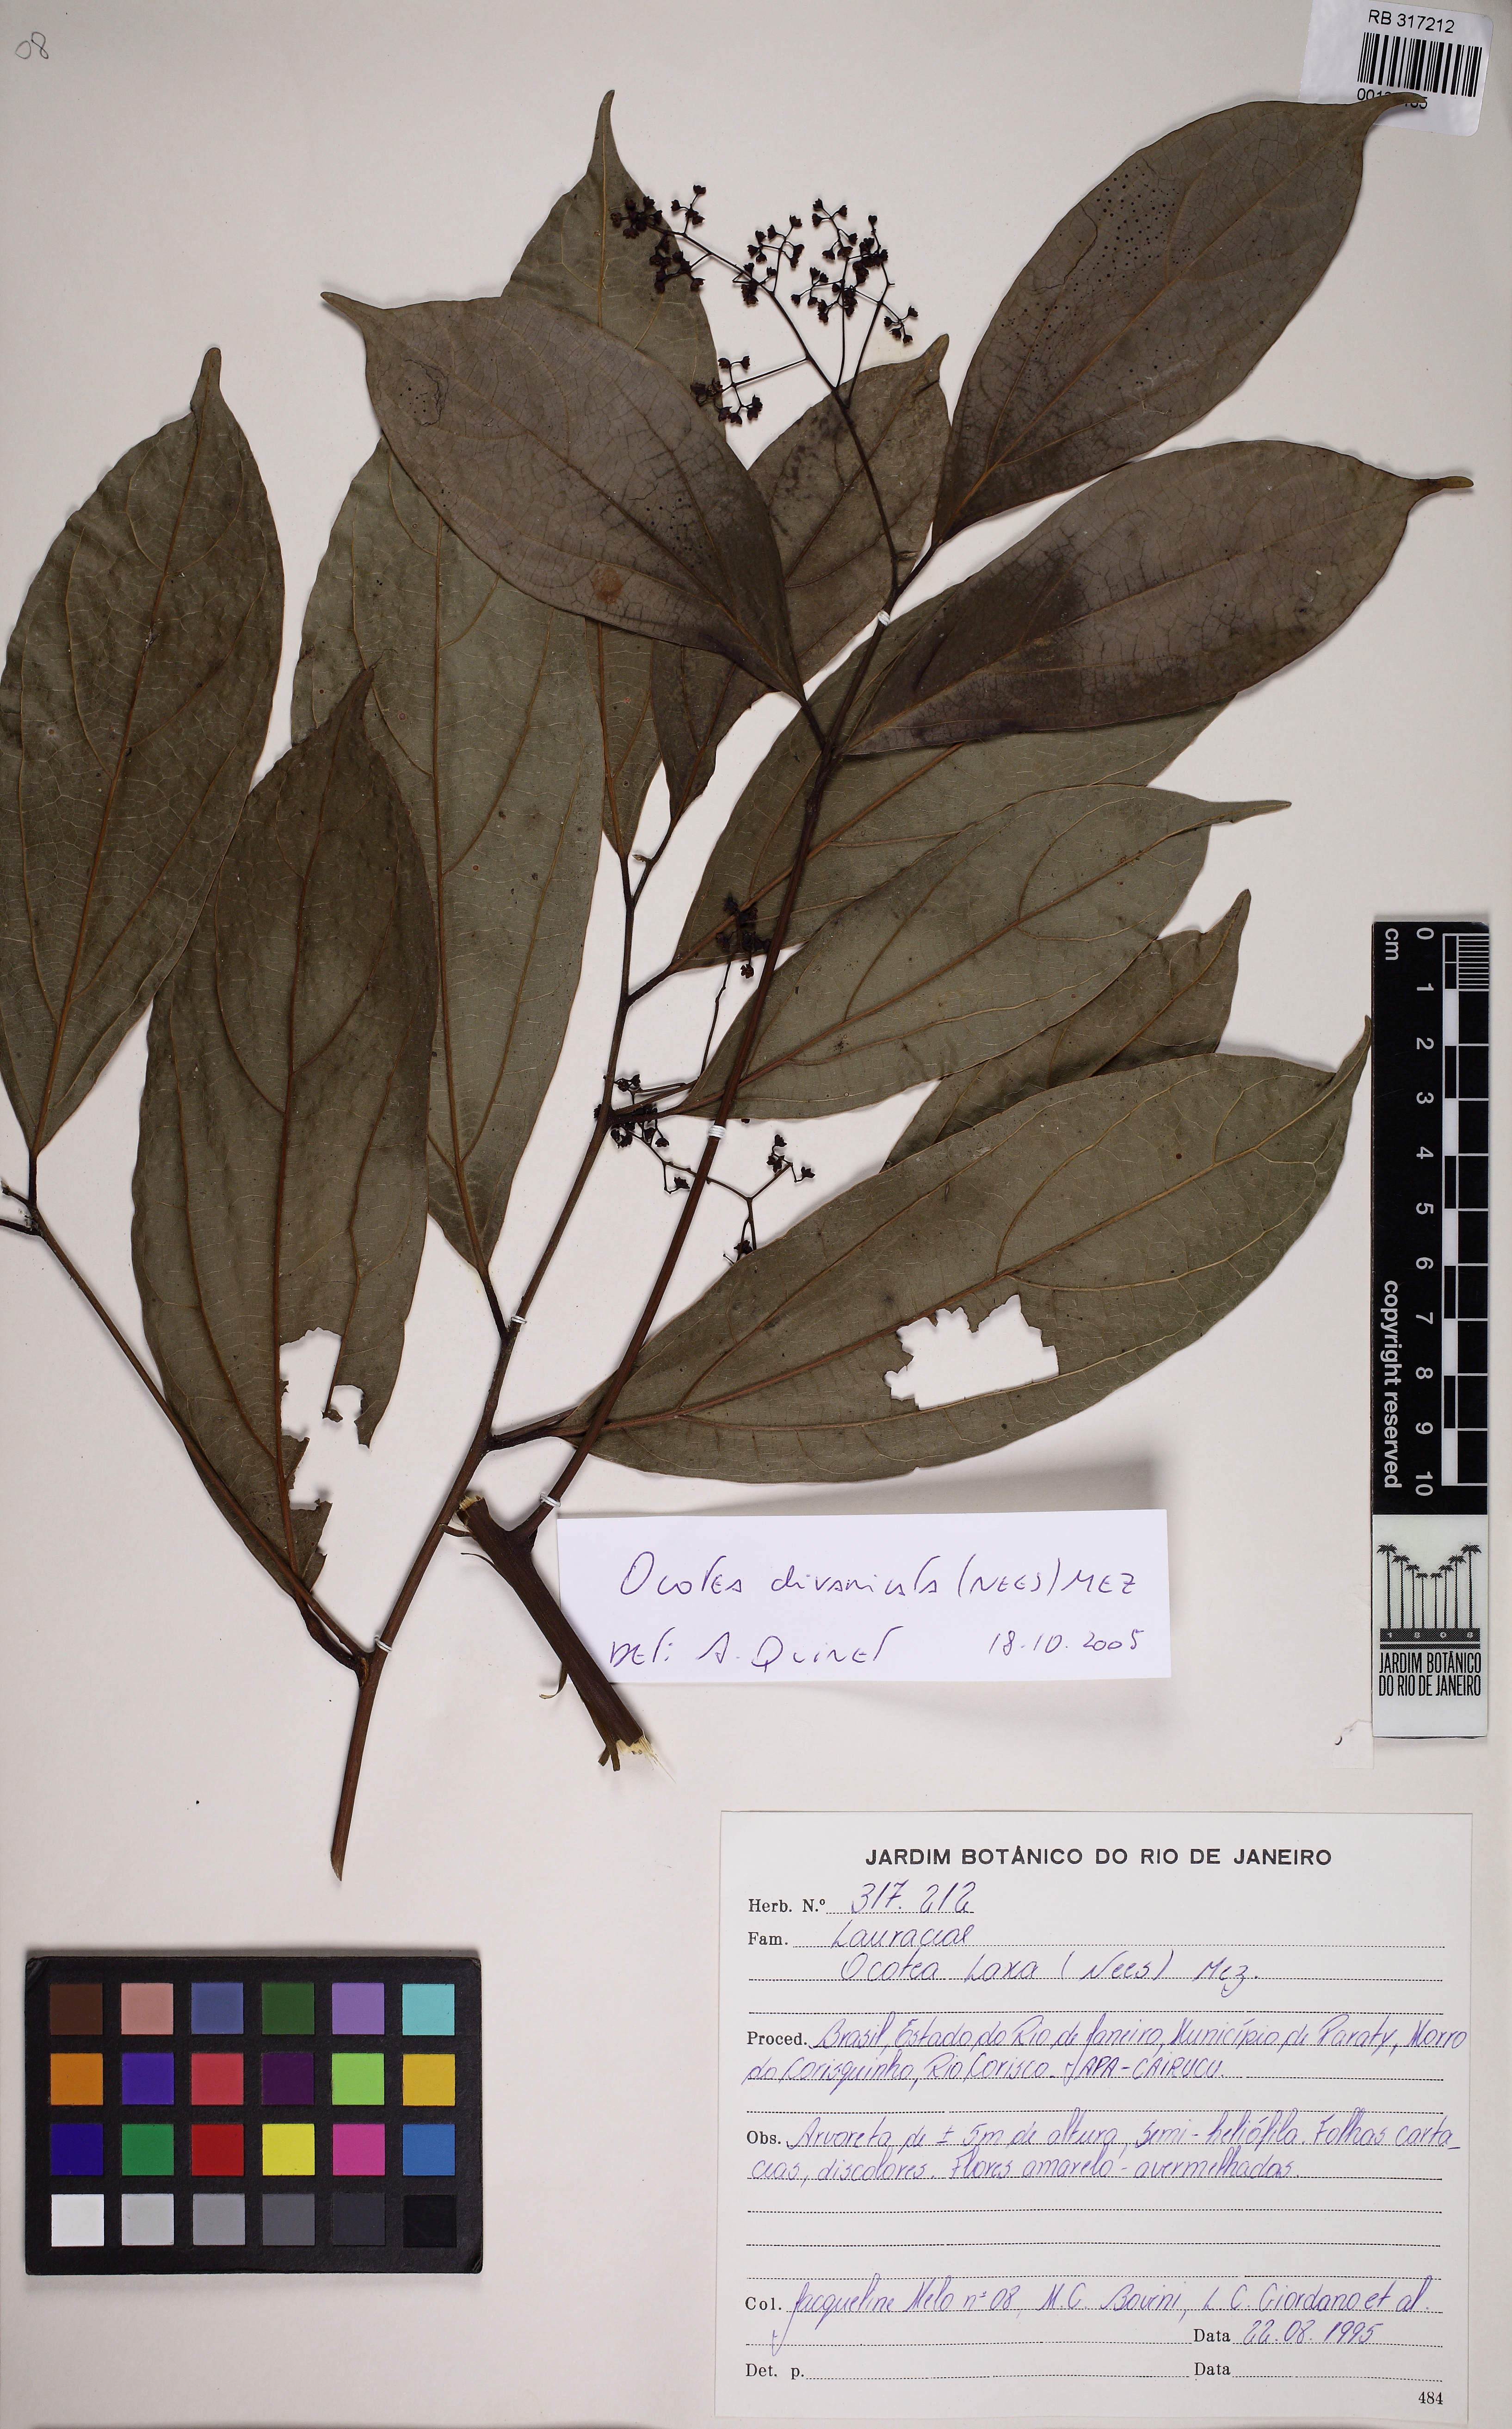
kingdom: Plantae
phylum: Tracheophyta
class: Magnoliopsida
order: Laurales
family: Lauraceae
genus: Ocotea
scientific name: Ocotea
